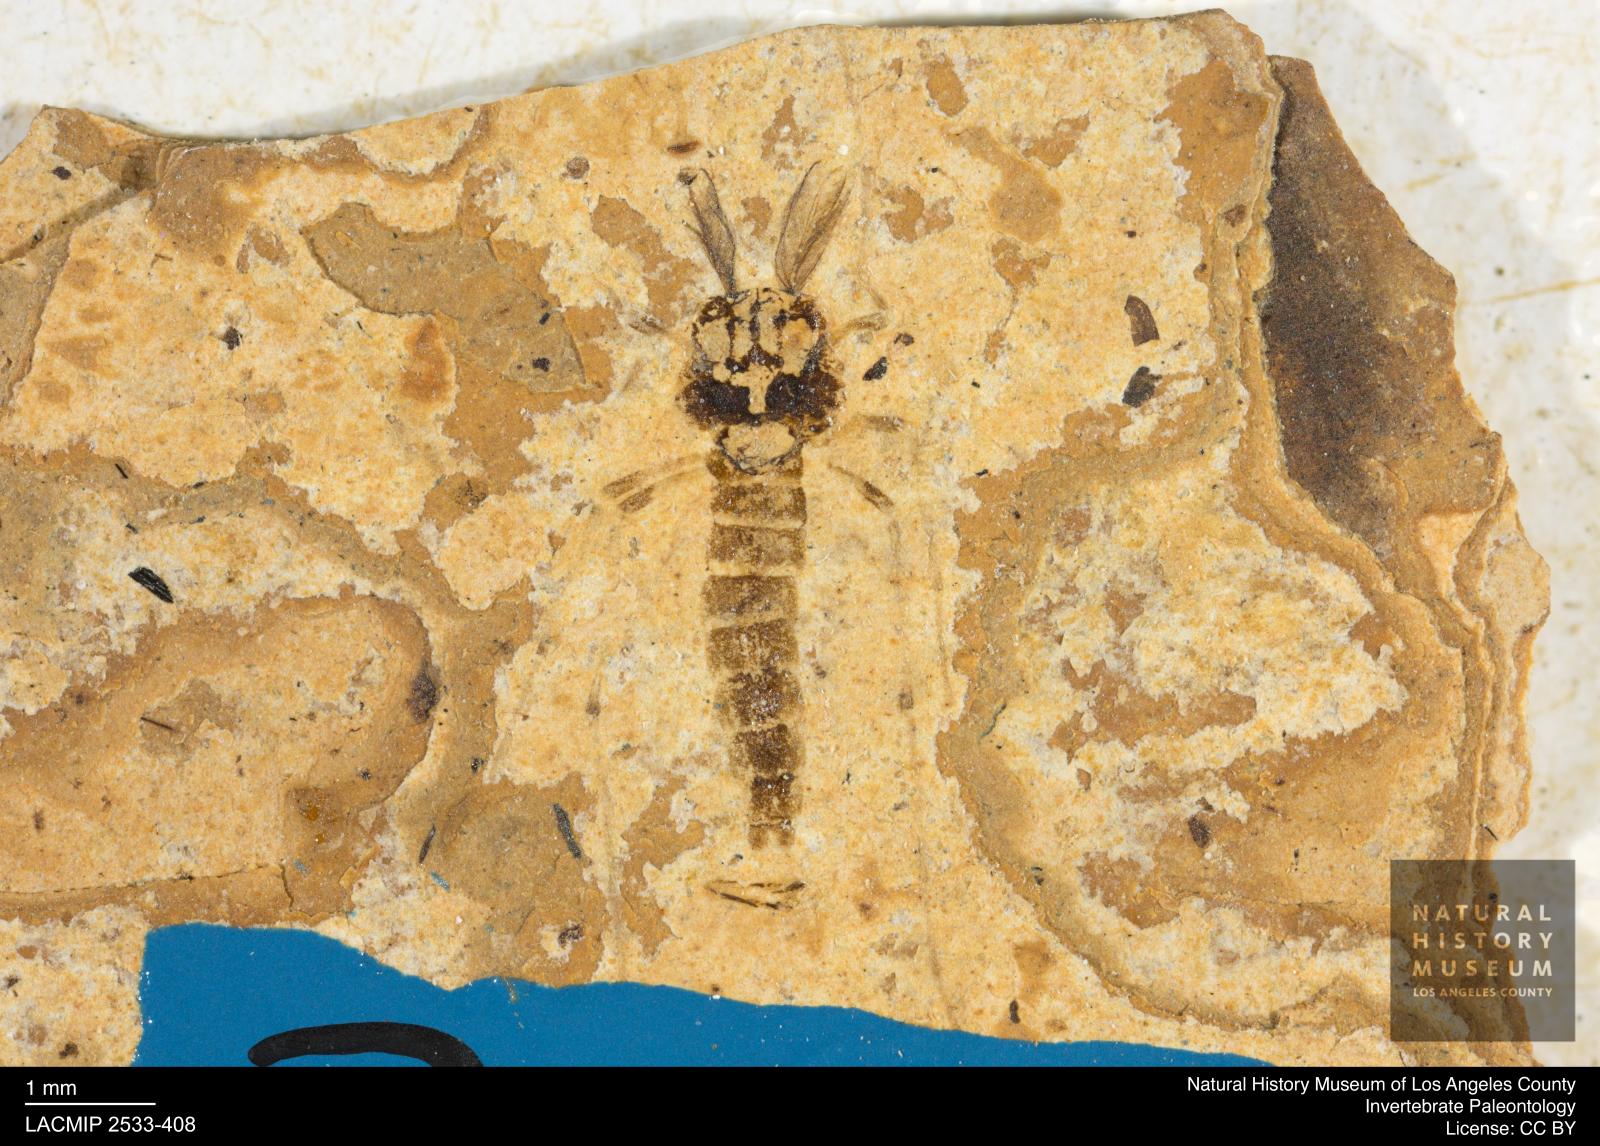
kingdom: Animalia
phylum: Arthropoda
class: Insecta
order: Diptera
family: Chironomidae
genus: Tanypus
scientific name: Tanypus dorminans
